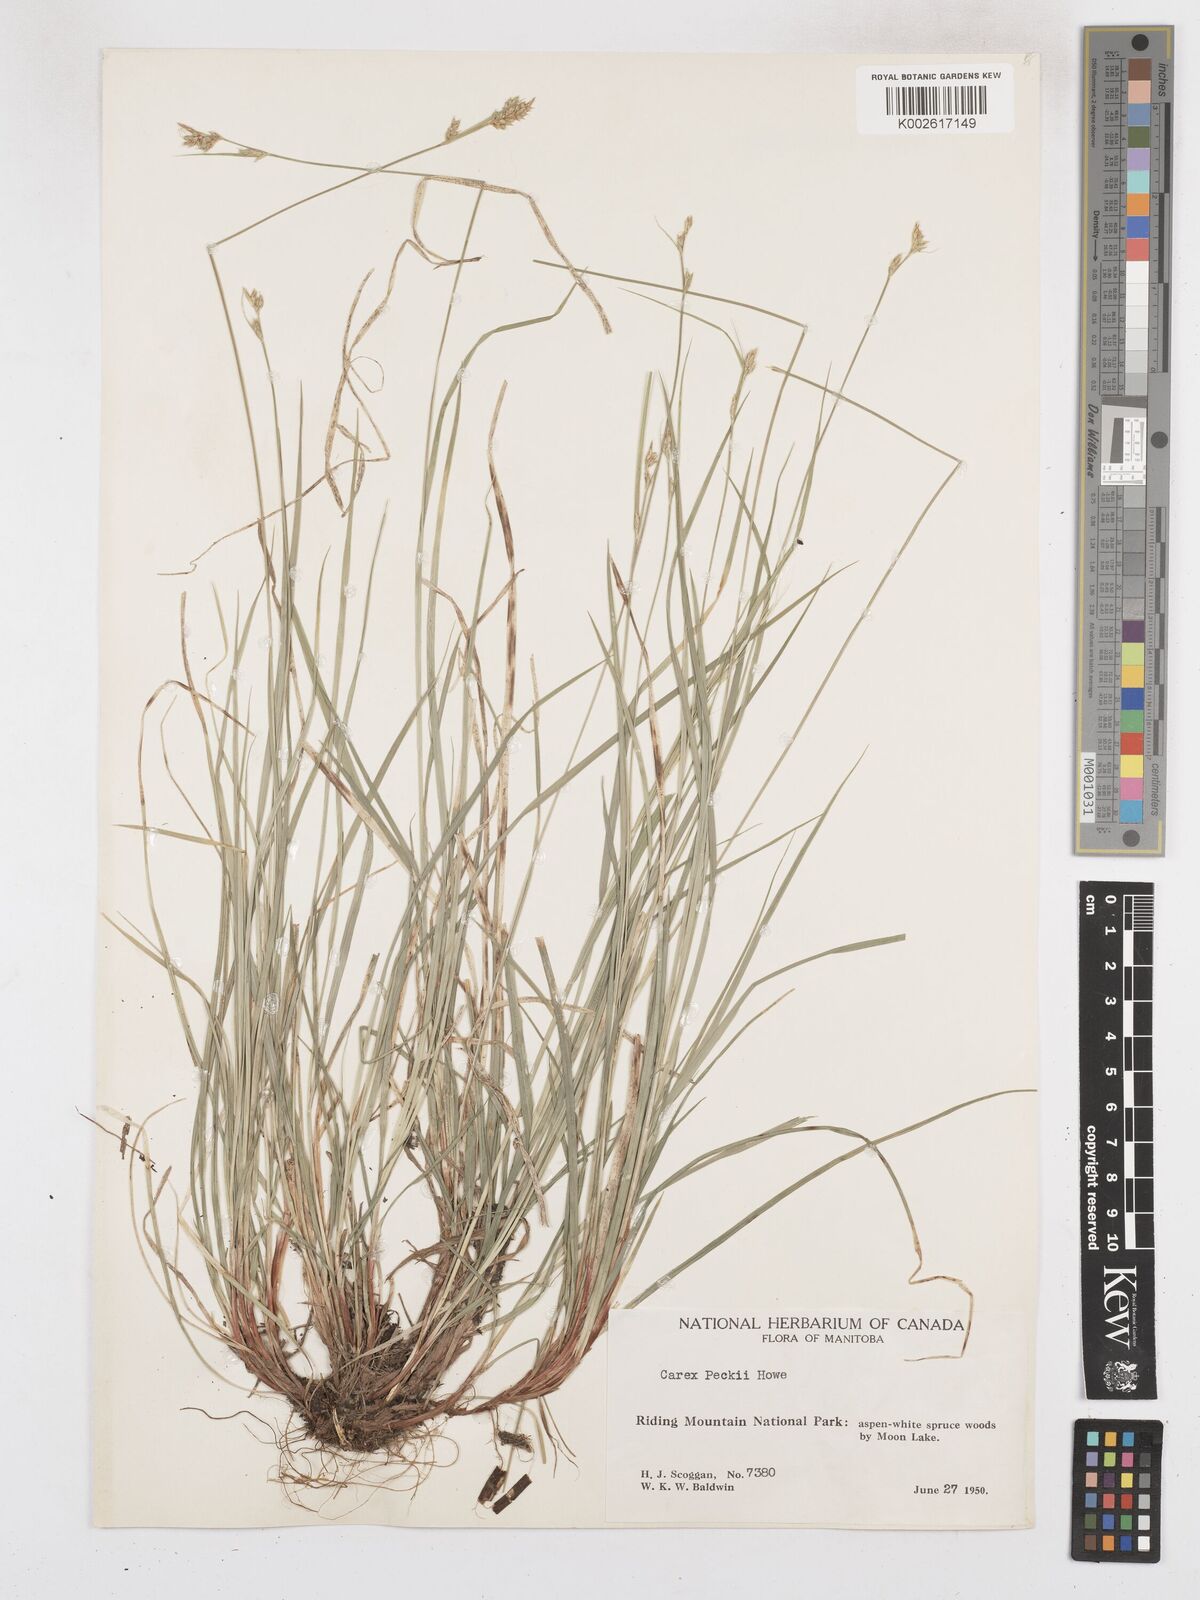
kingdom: Plantae
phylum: Tracheophyta
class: Liliopsida
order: Poales
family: Cyperaceae
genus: Carex
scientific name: Carex peckii
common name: Peck's oak sedge
